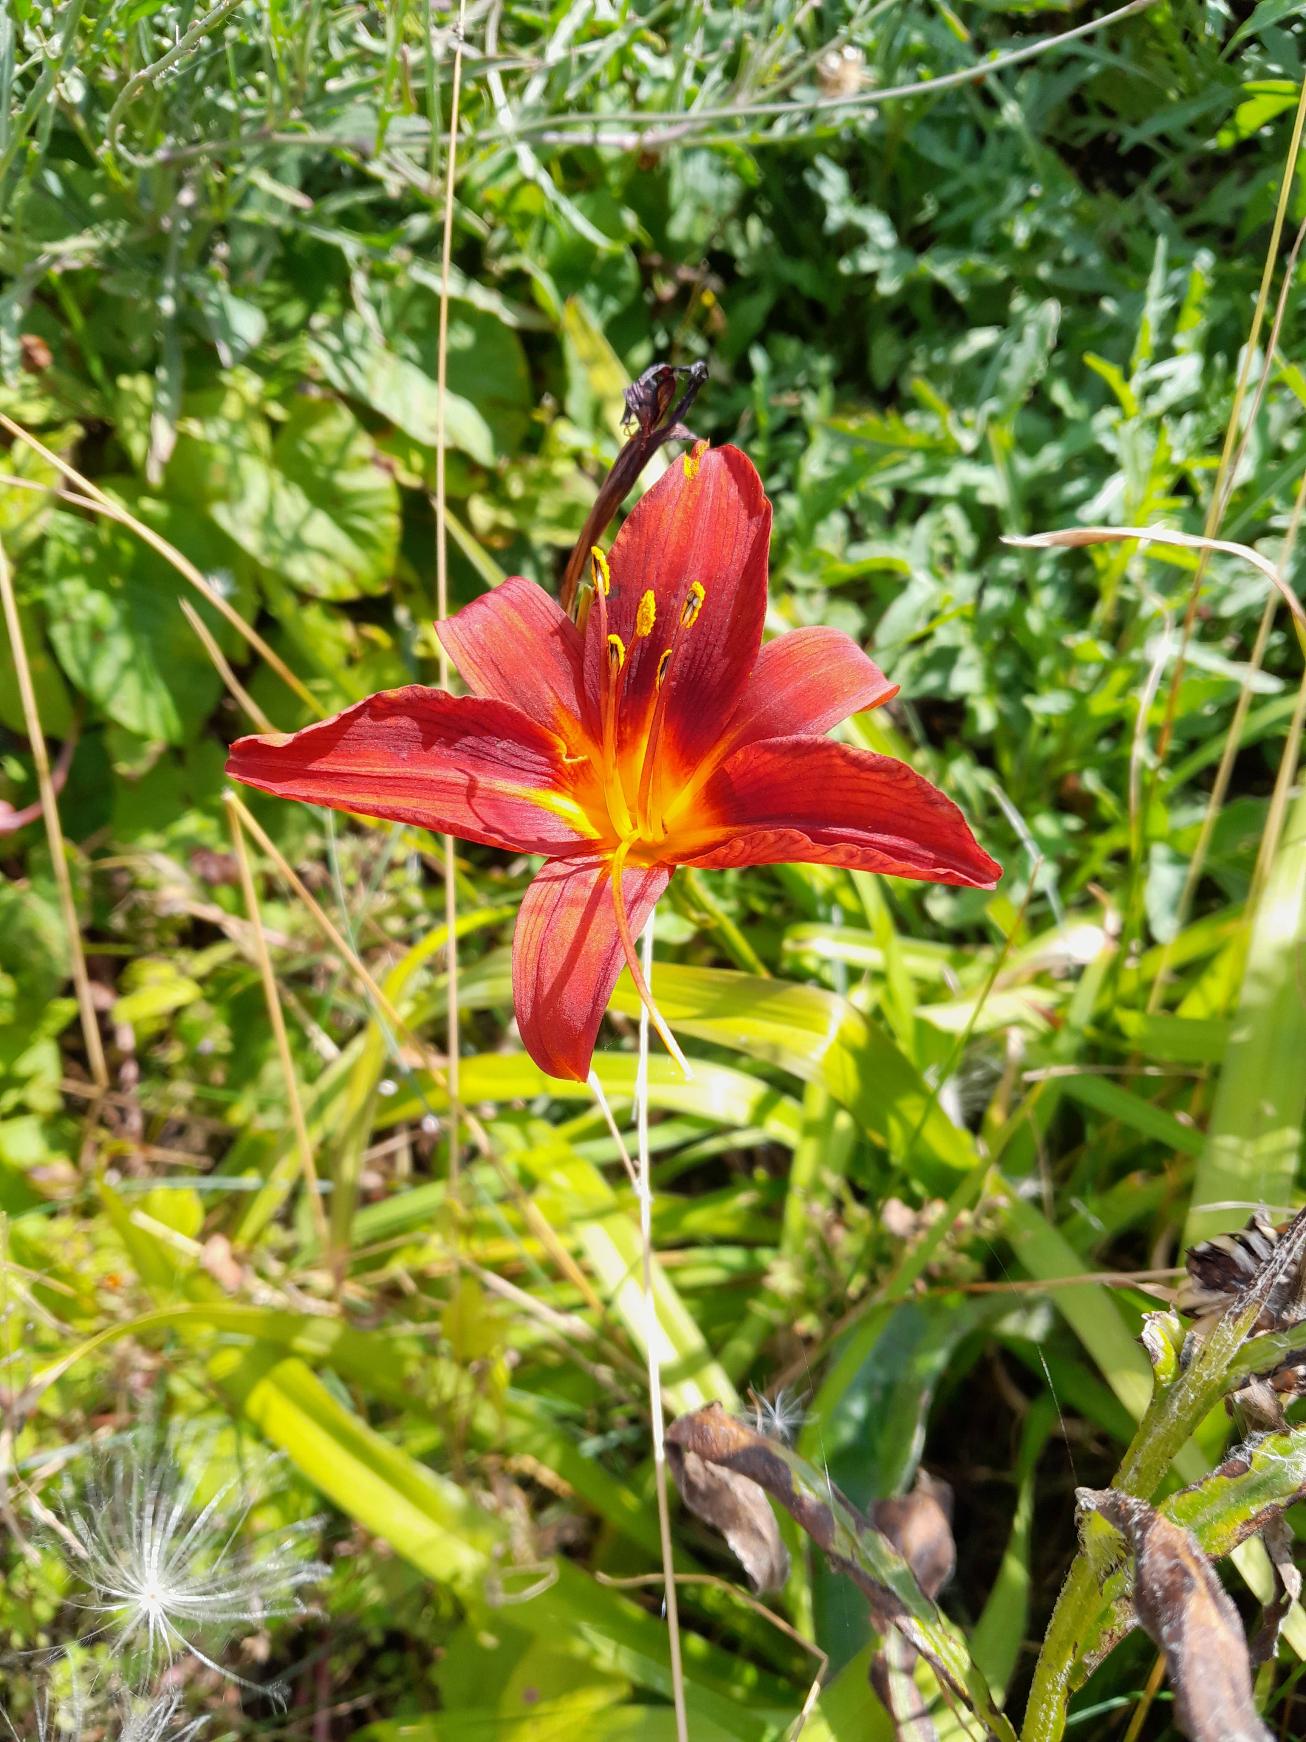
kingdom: Plantae
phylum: Tracheophyta
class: Liliopsida
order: Asparagales
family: Asphodelaceae
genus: Hemerocallis
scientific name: Hemerocallis fulva
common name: Rødgul daglilje
